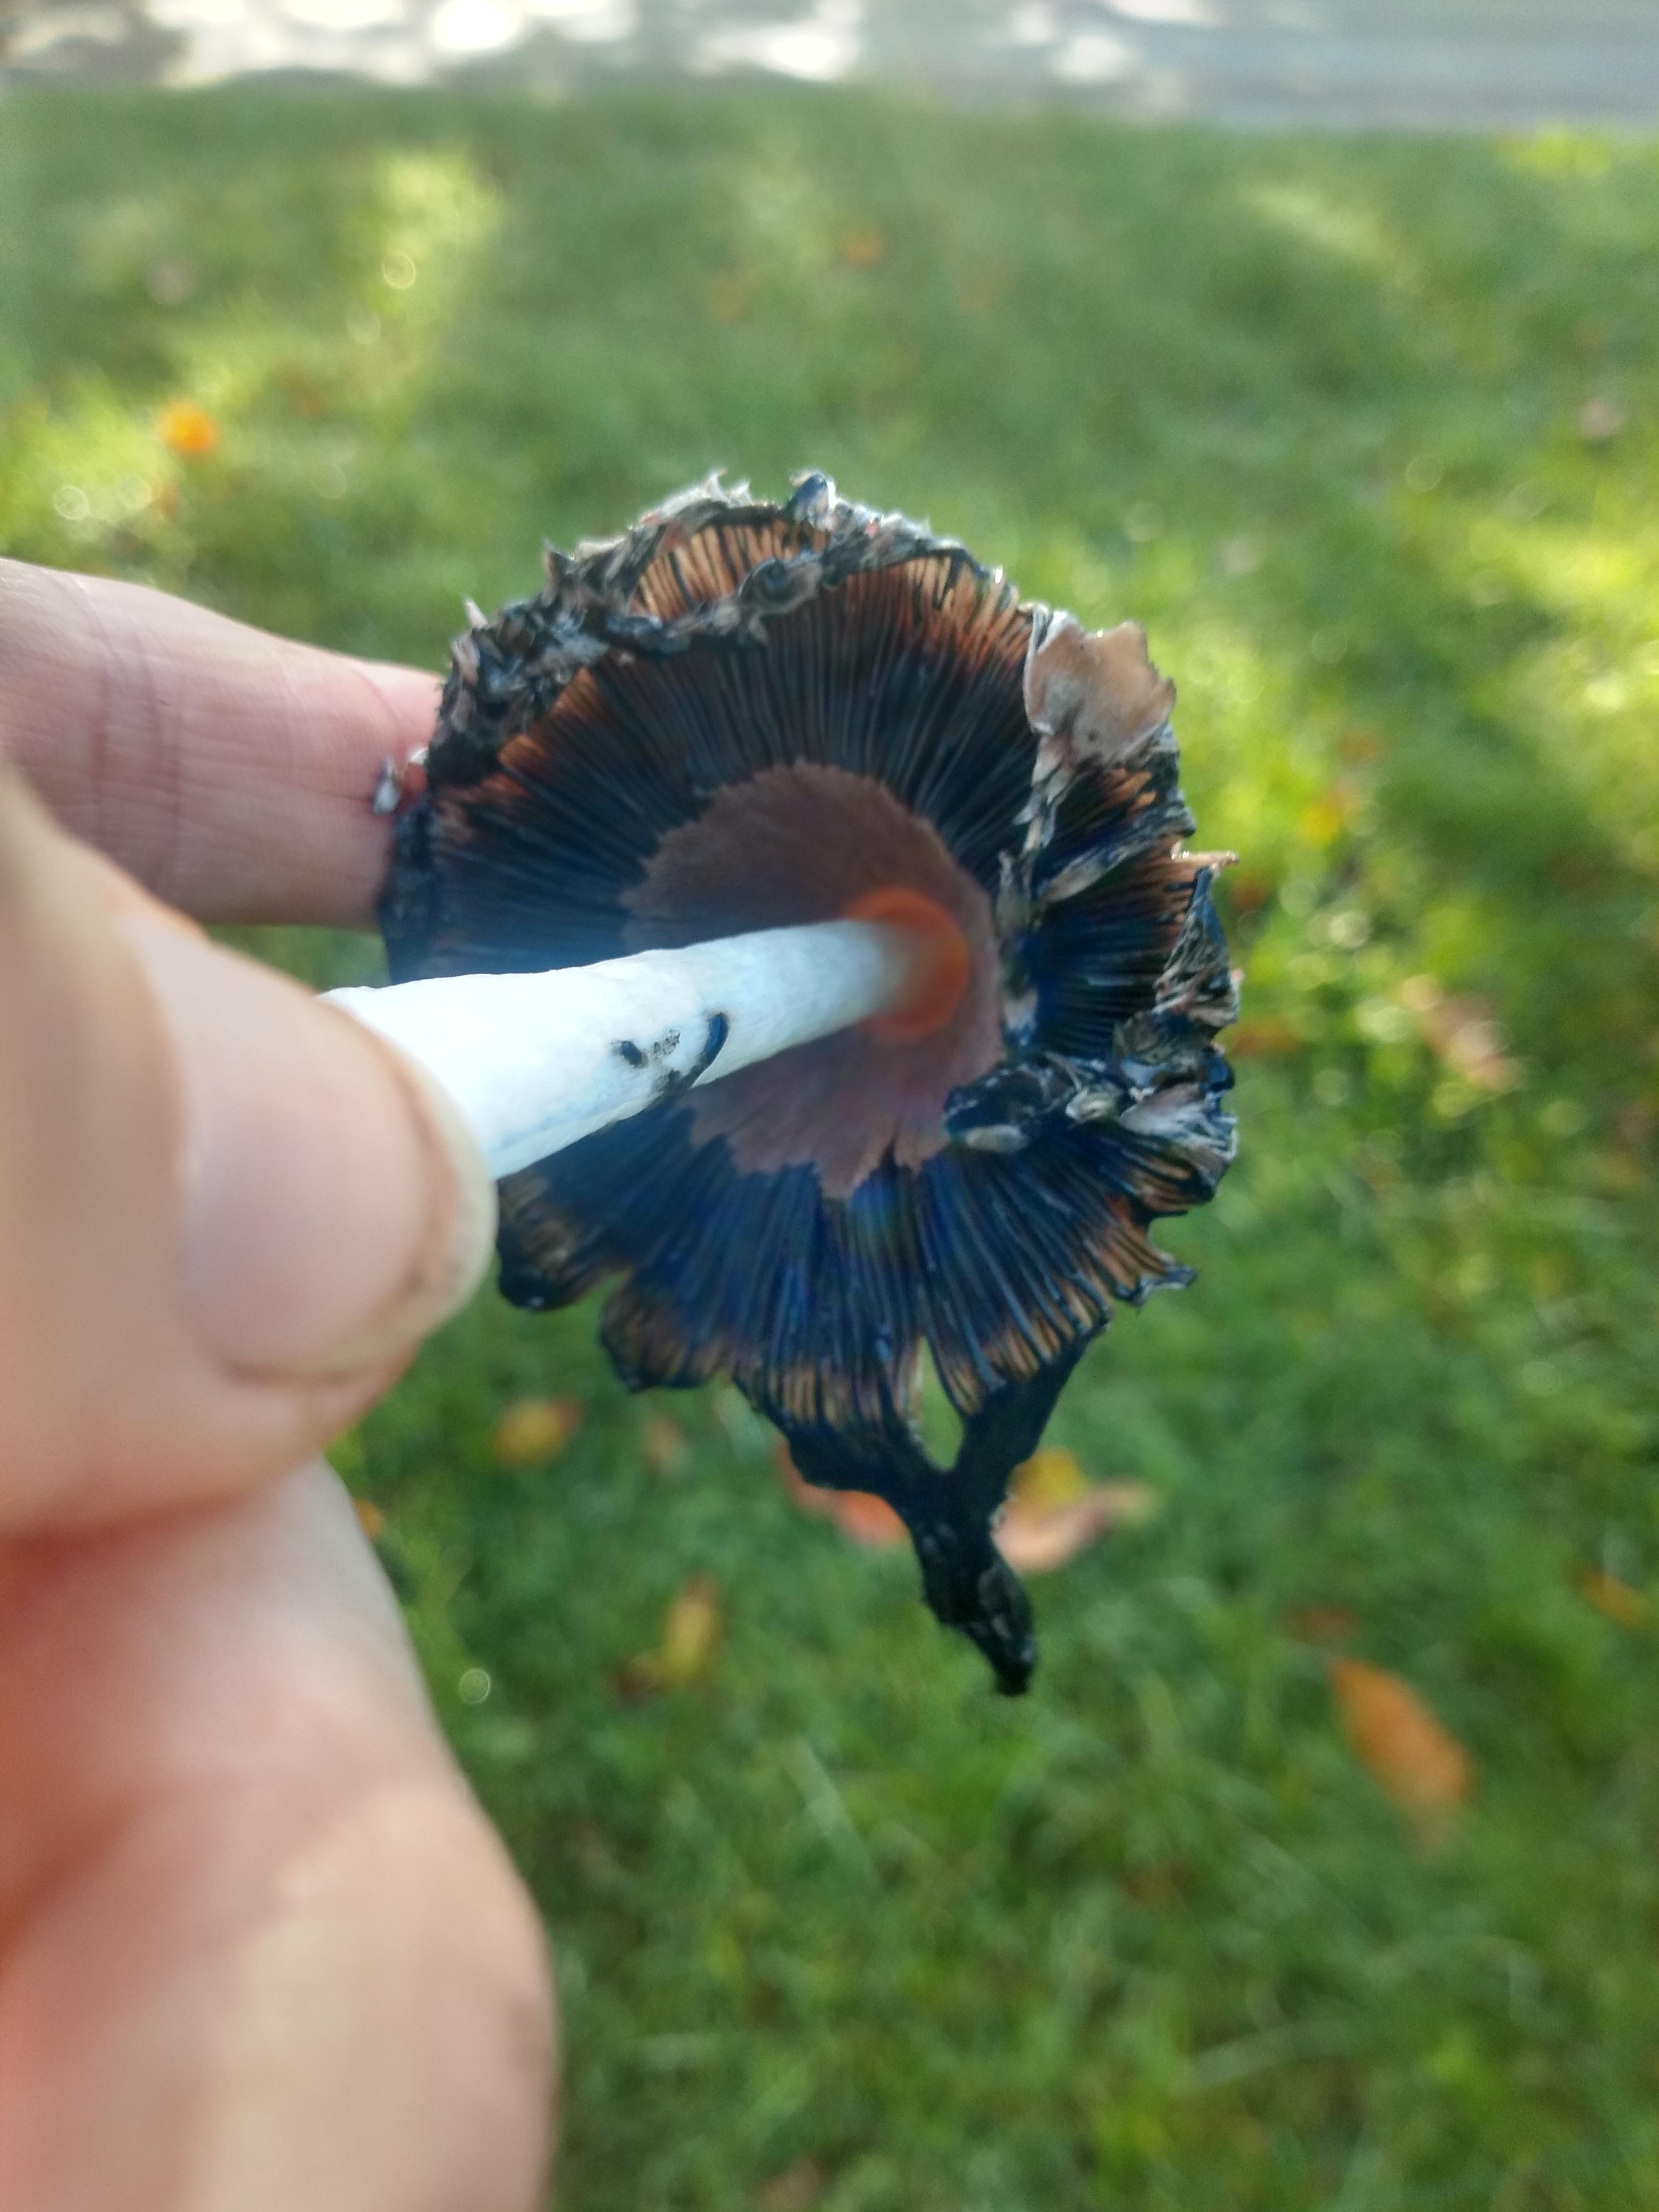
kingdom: Fungi
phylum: Basidiomycota
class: Agaricomycetes
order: Agaricales
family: Agaricaceae
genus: Coprinus
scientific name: Coprinus comatus
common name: stor parykhat
